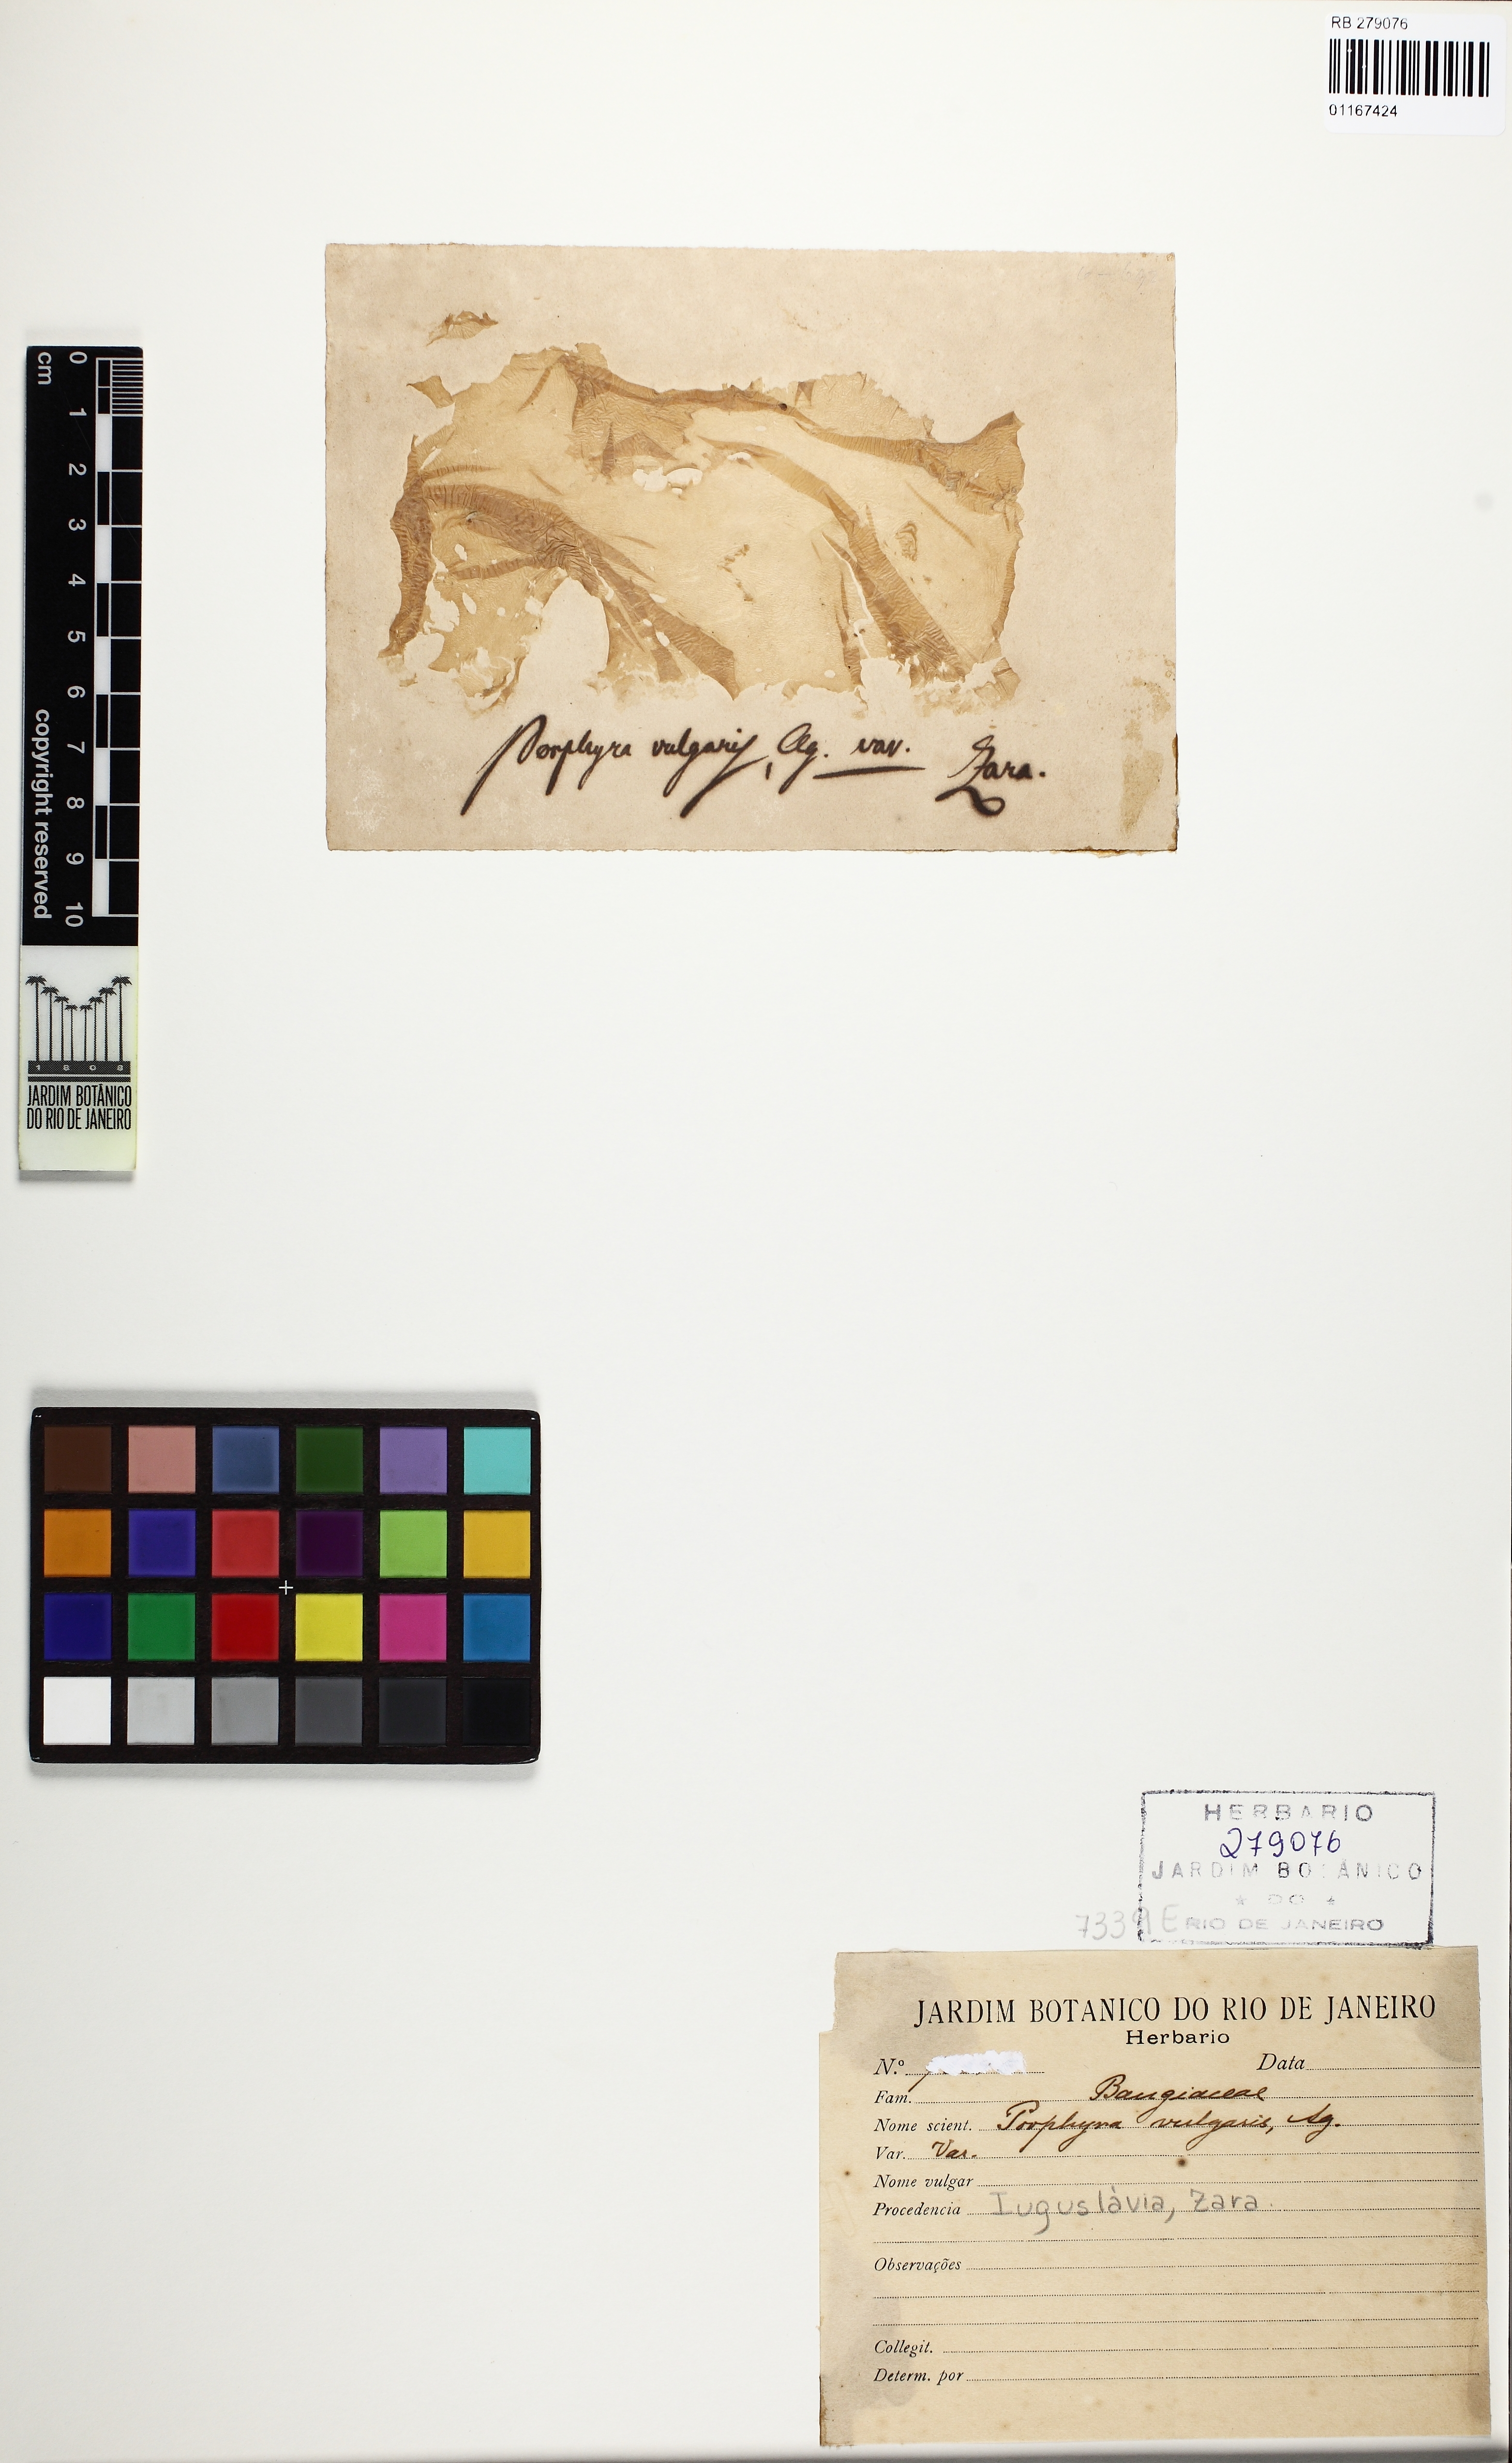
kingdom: Plantae
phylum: Rhodophyta
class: Bangiophyceae
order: Bangiales
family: Bangiaceae
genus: Porphyra
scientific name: Porphyra vulgaris
